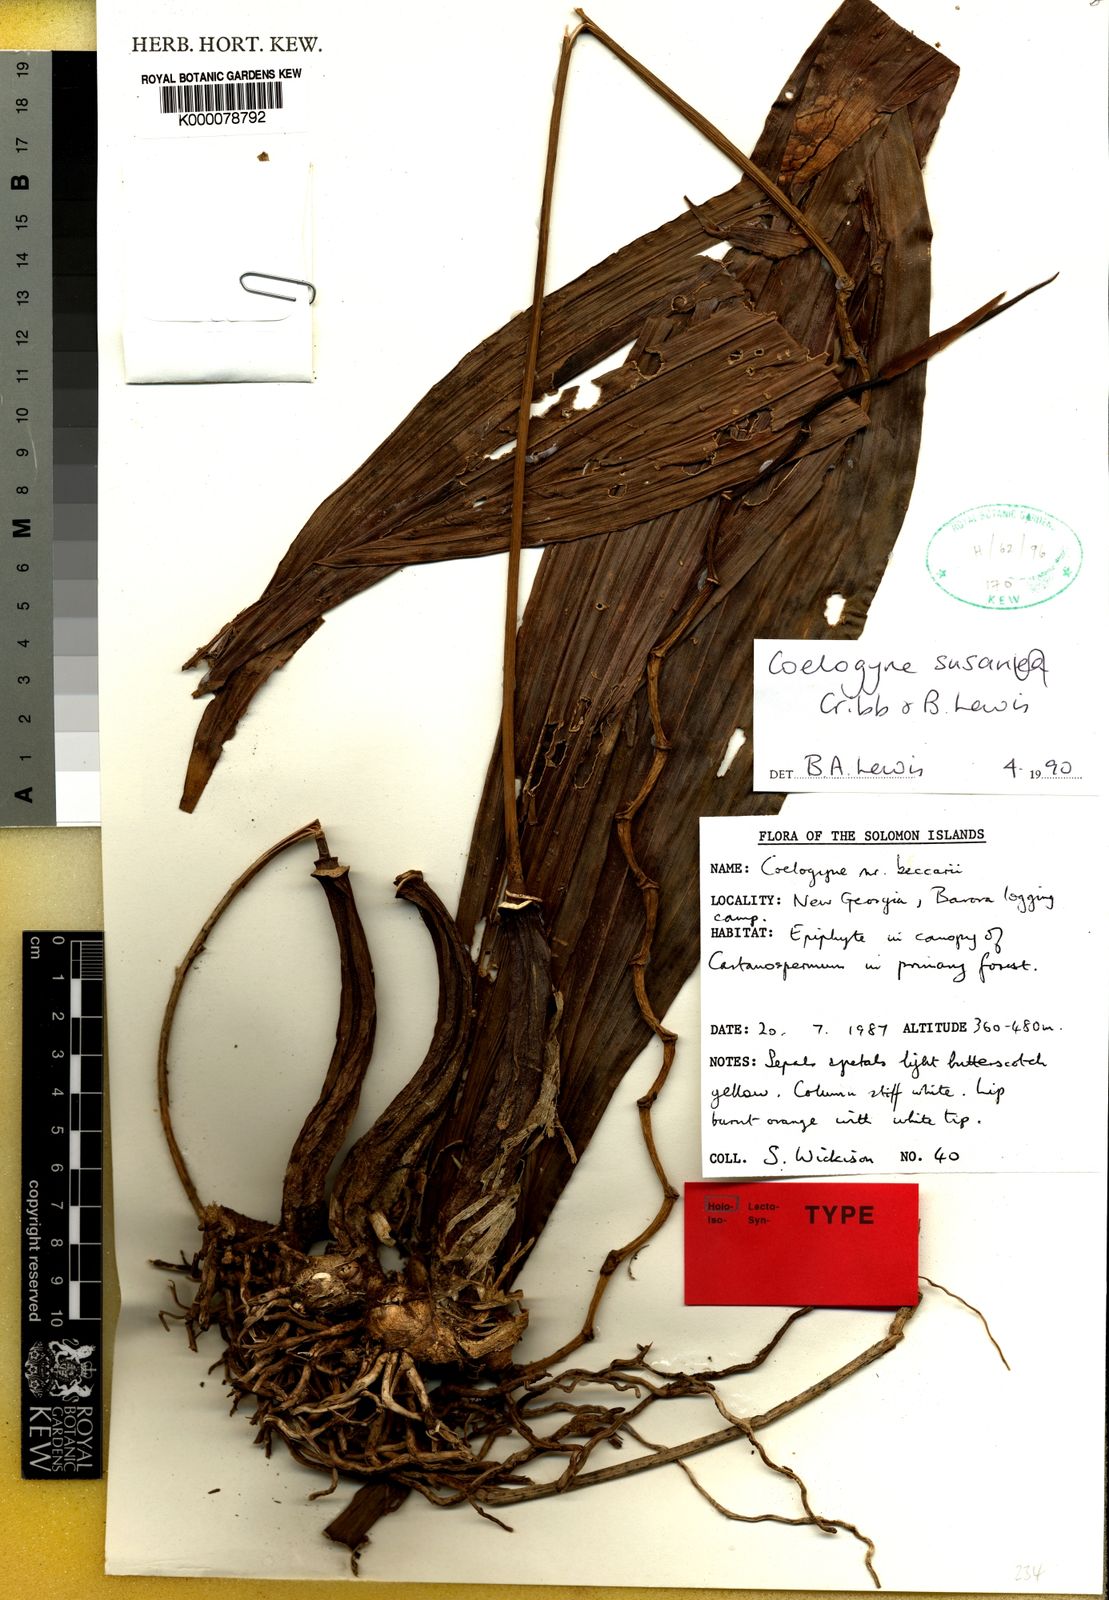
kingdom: Plantae
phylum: Tracheophyta
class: Liliopsida
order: Asparagales
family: Orchidaceae
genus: Coelogyne
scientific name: Coelogyne susanae
